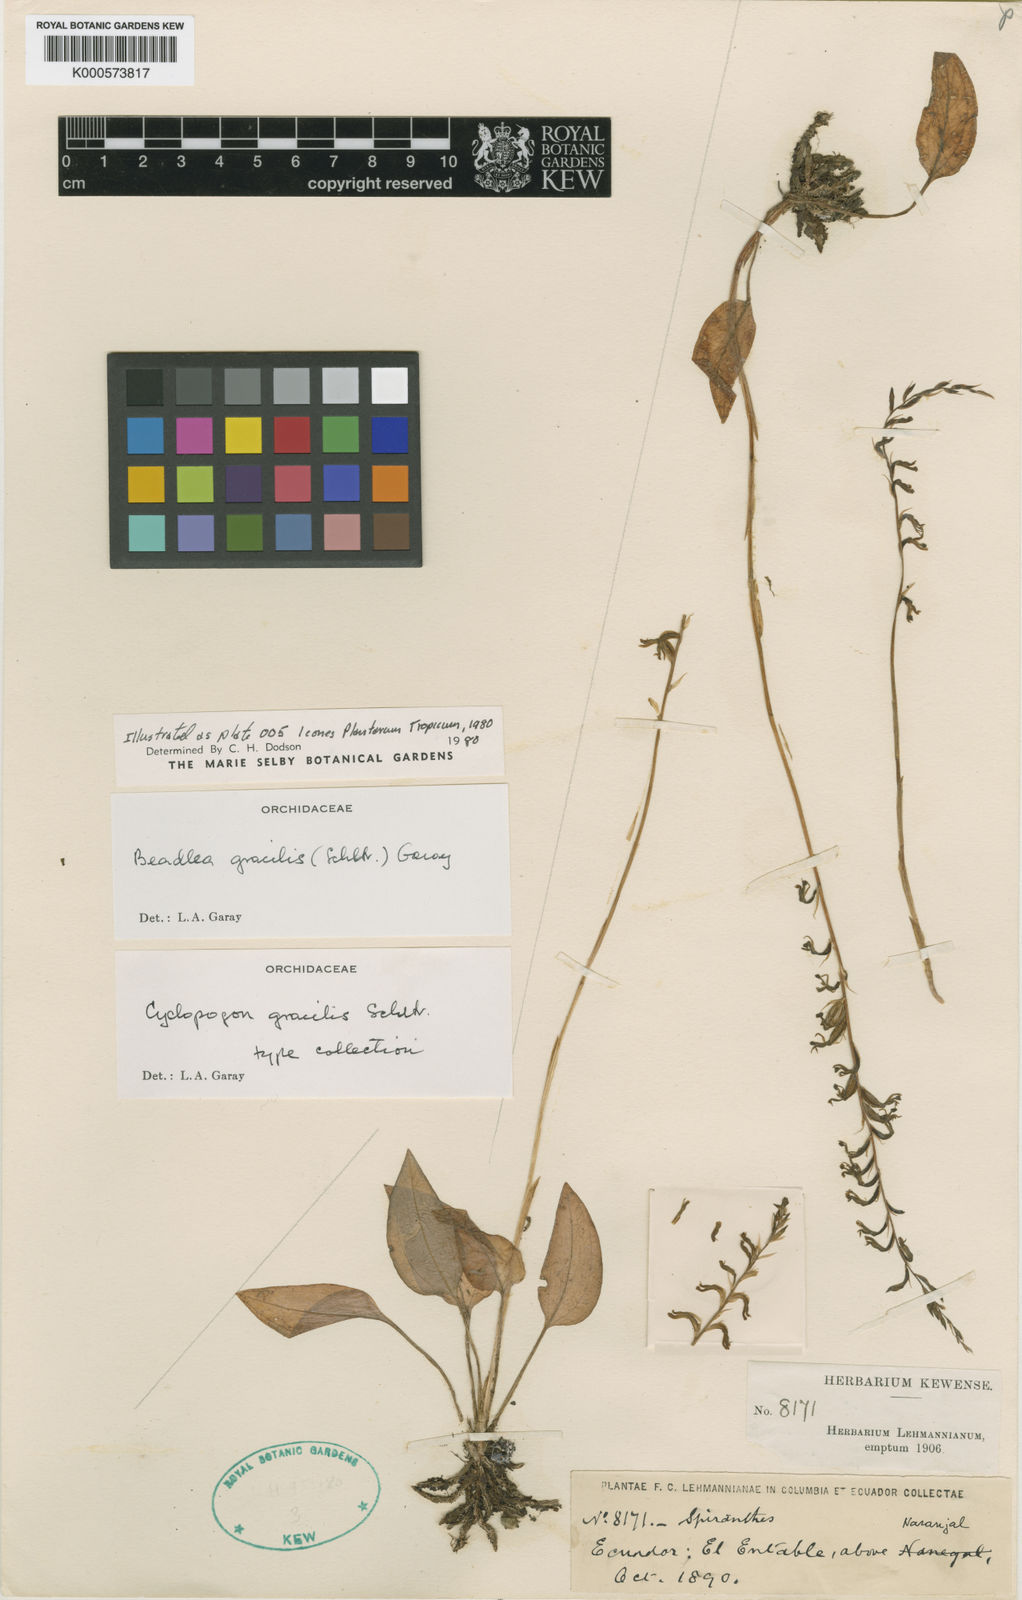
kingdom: Plantae
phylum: Tracheophyta
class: Liliopsida
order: Asparagales
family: Orchidaceae
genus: Cyclopogon
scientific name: Cyclopogon gracilis
